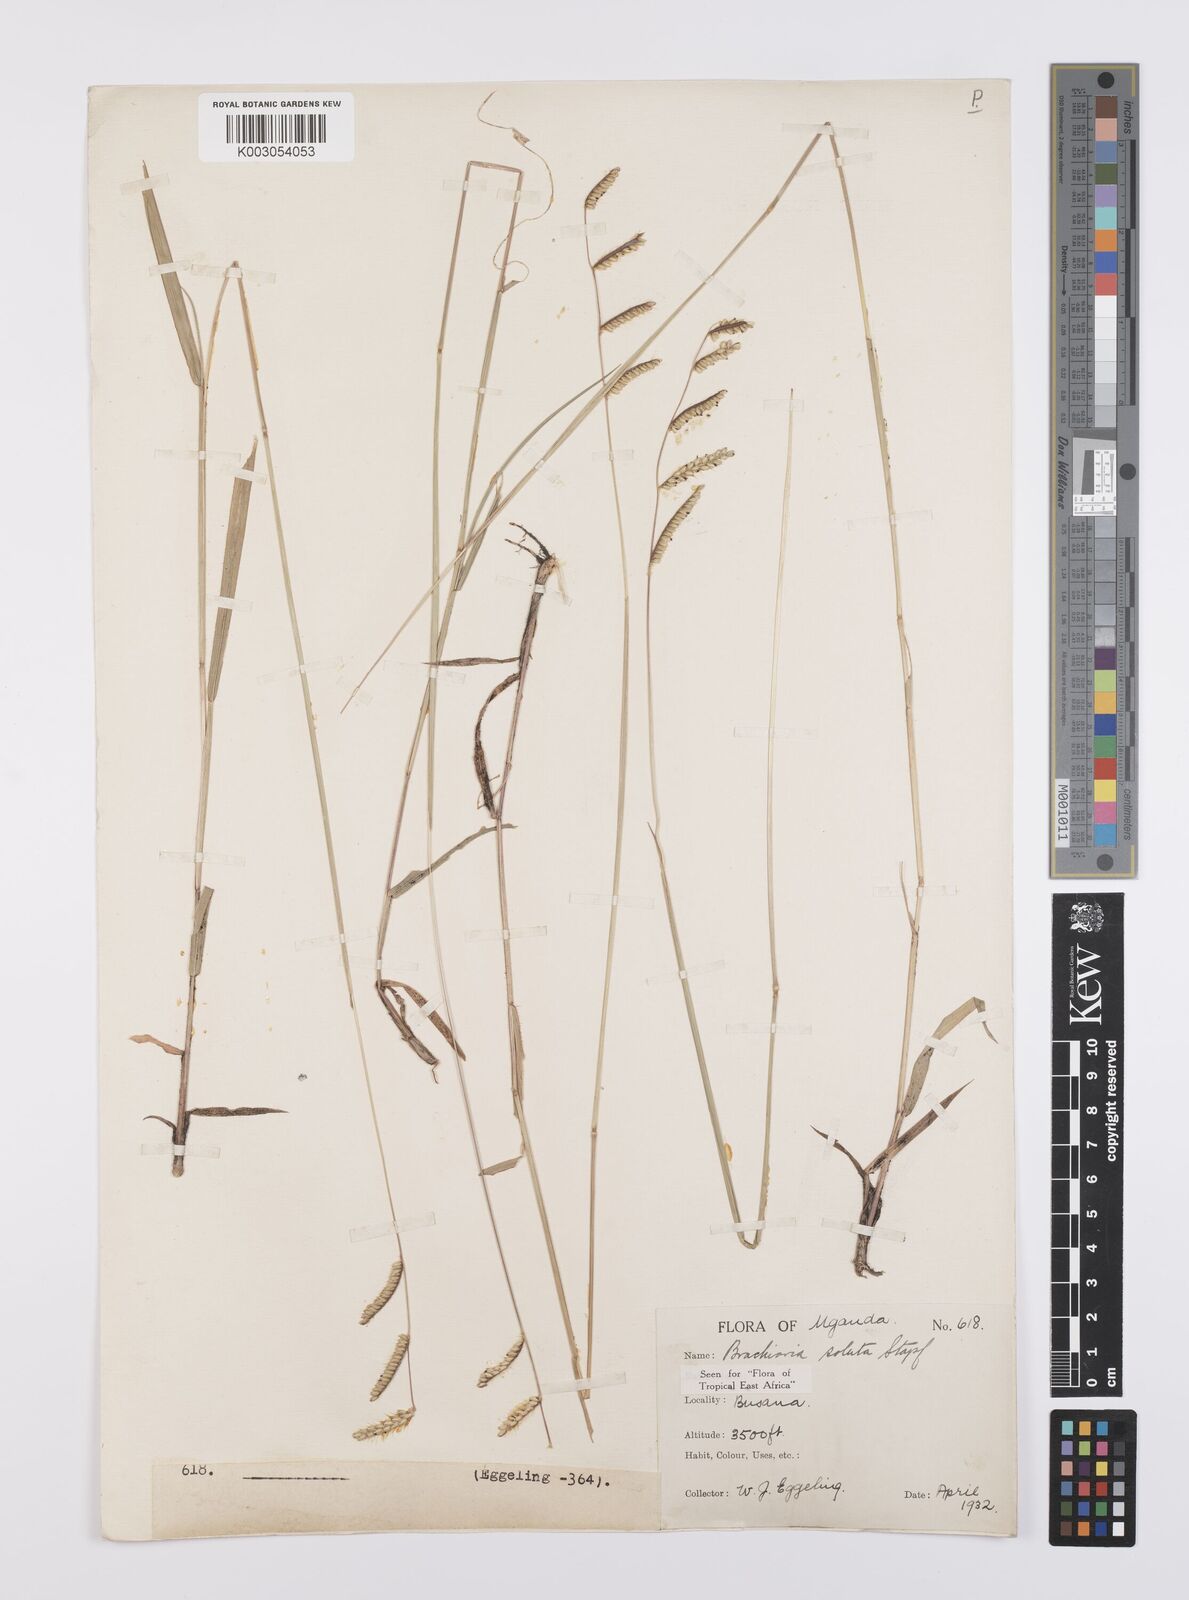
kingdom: Plantae
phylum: Tracheophyta
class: Liliopsida
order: Poales
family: Poaceae
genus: Urochloa
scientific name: Urochloa jubata
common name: Buffalograss
